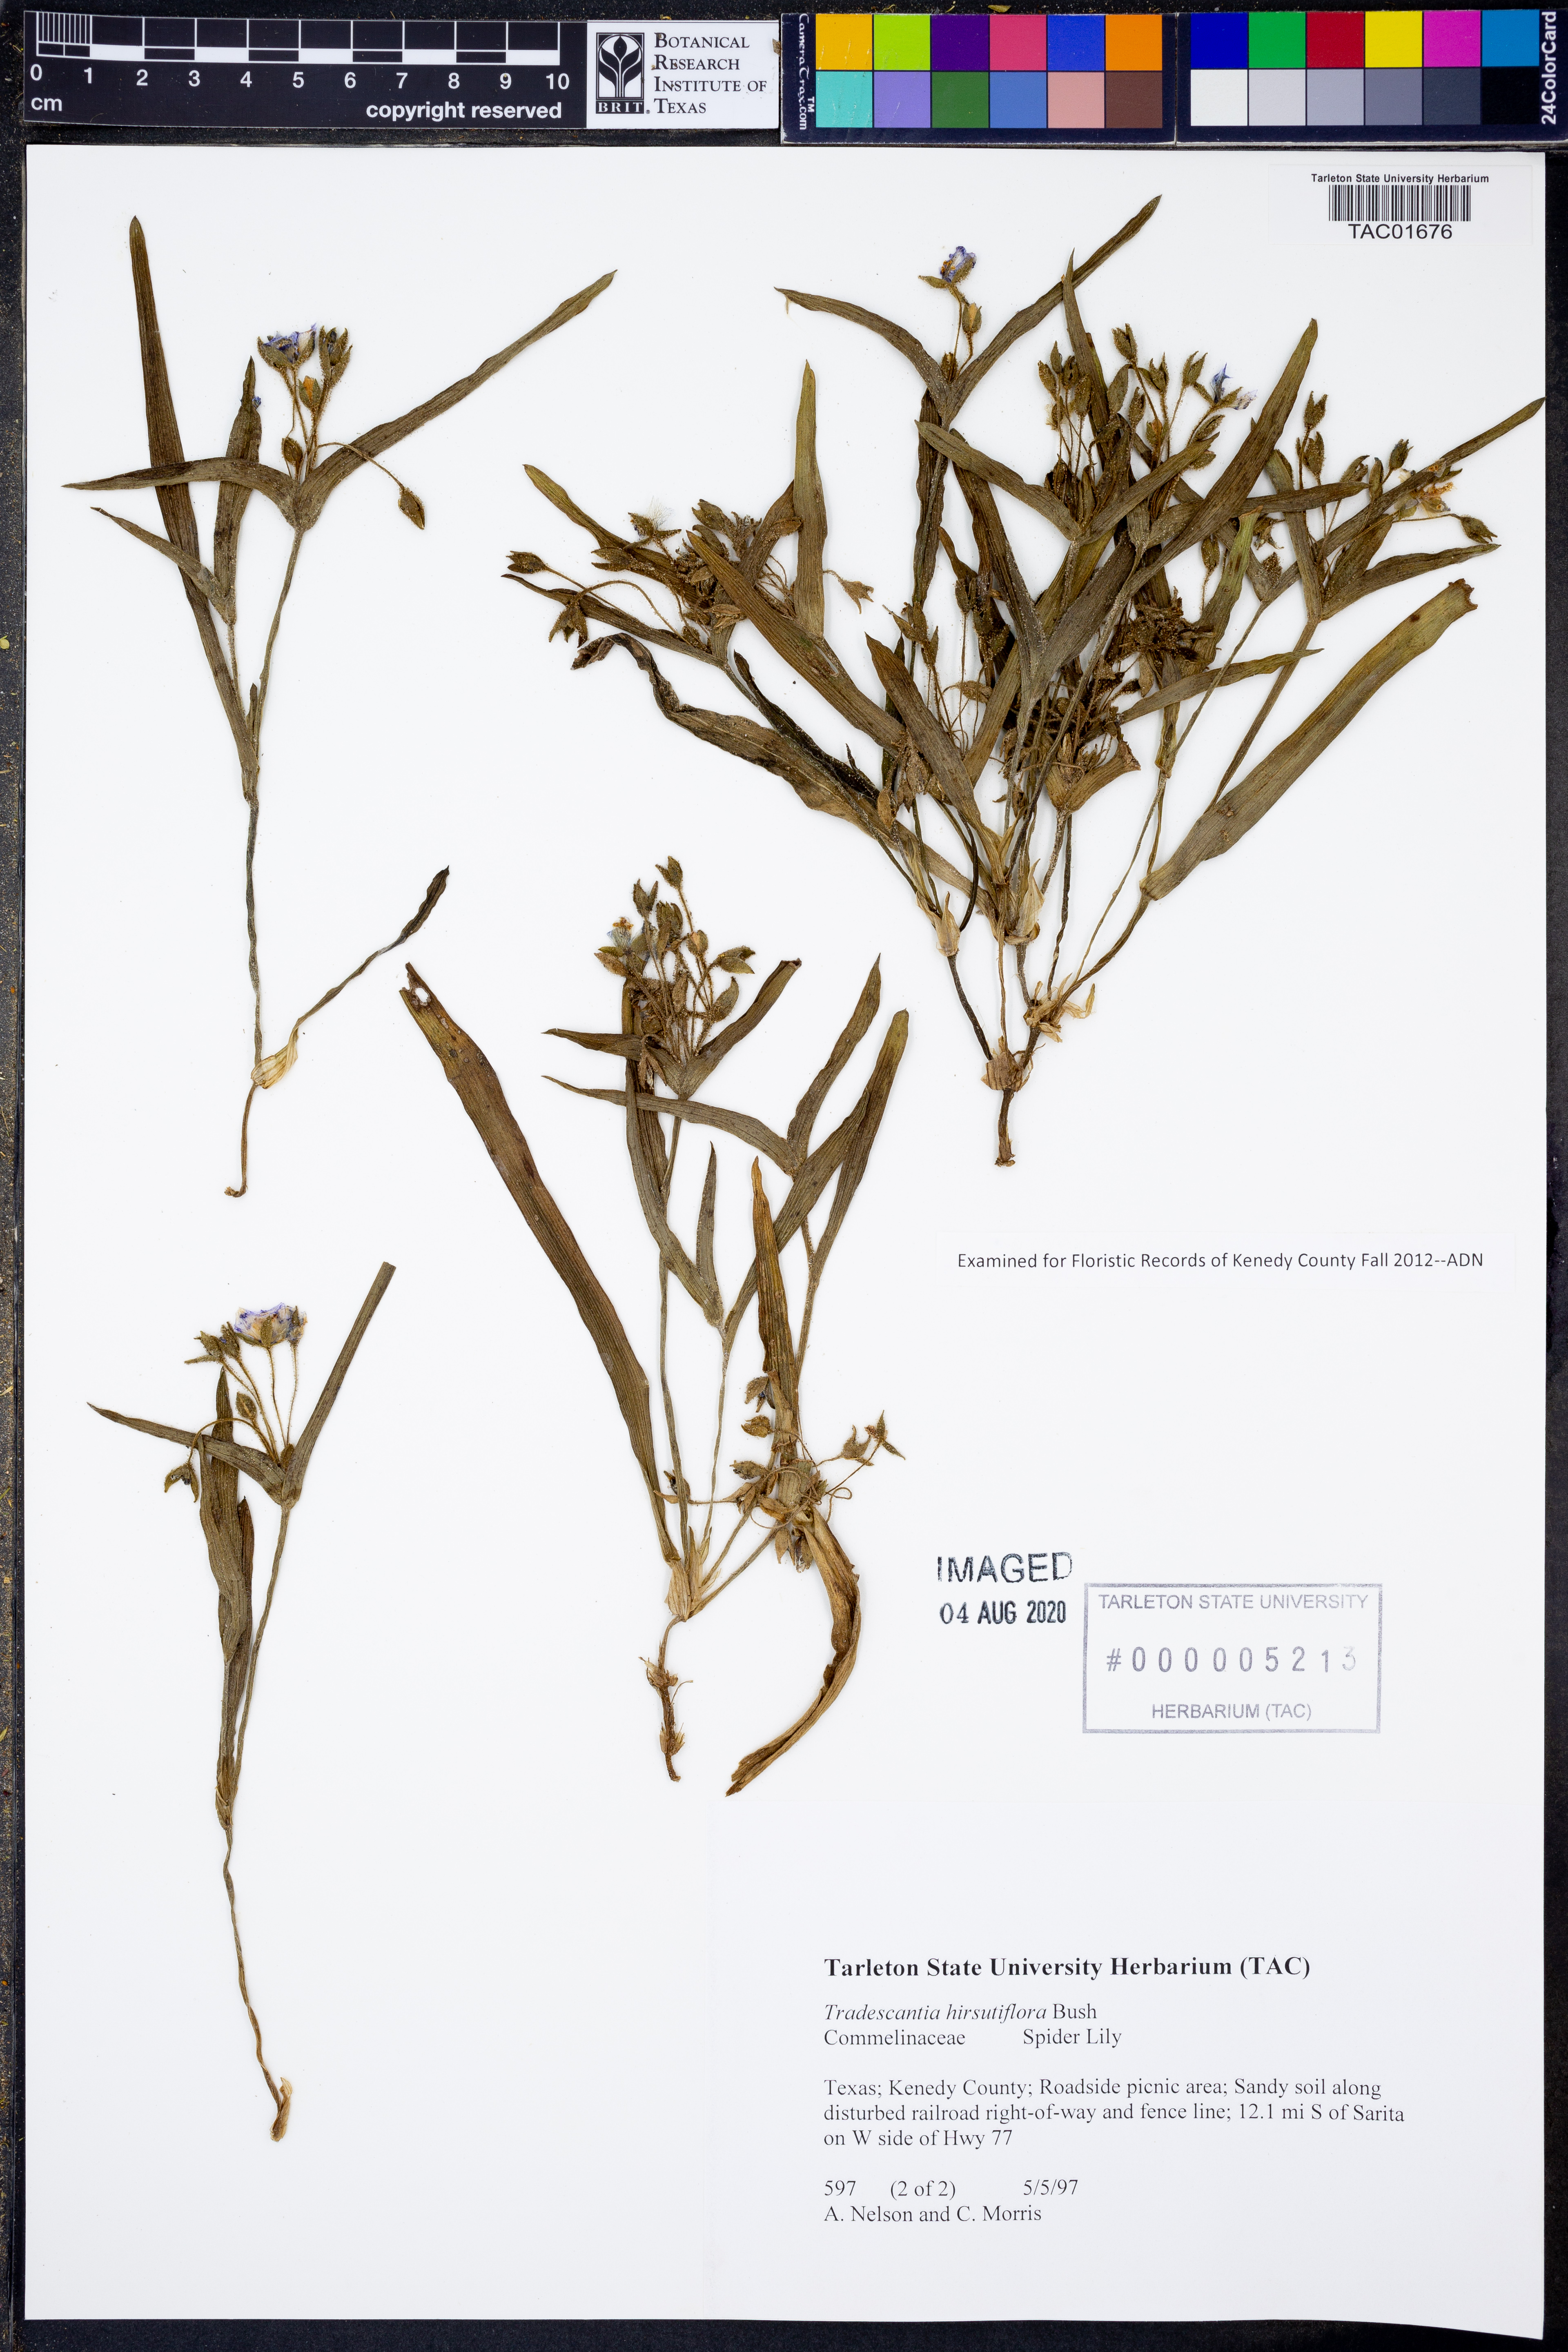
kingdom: Plantae
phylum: Tracheophyta
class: Liliopsida
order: Commelinales
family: Commelinaceae
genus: Tradescantia
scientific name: Tradescantia hirsutiflora
